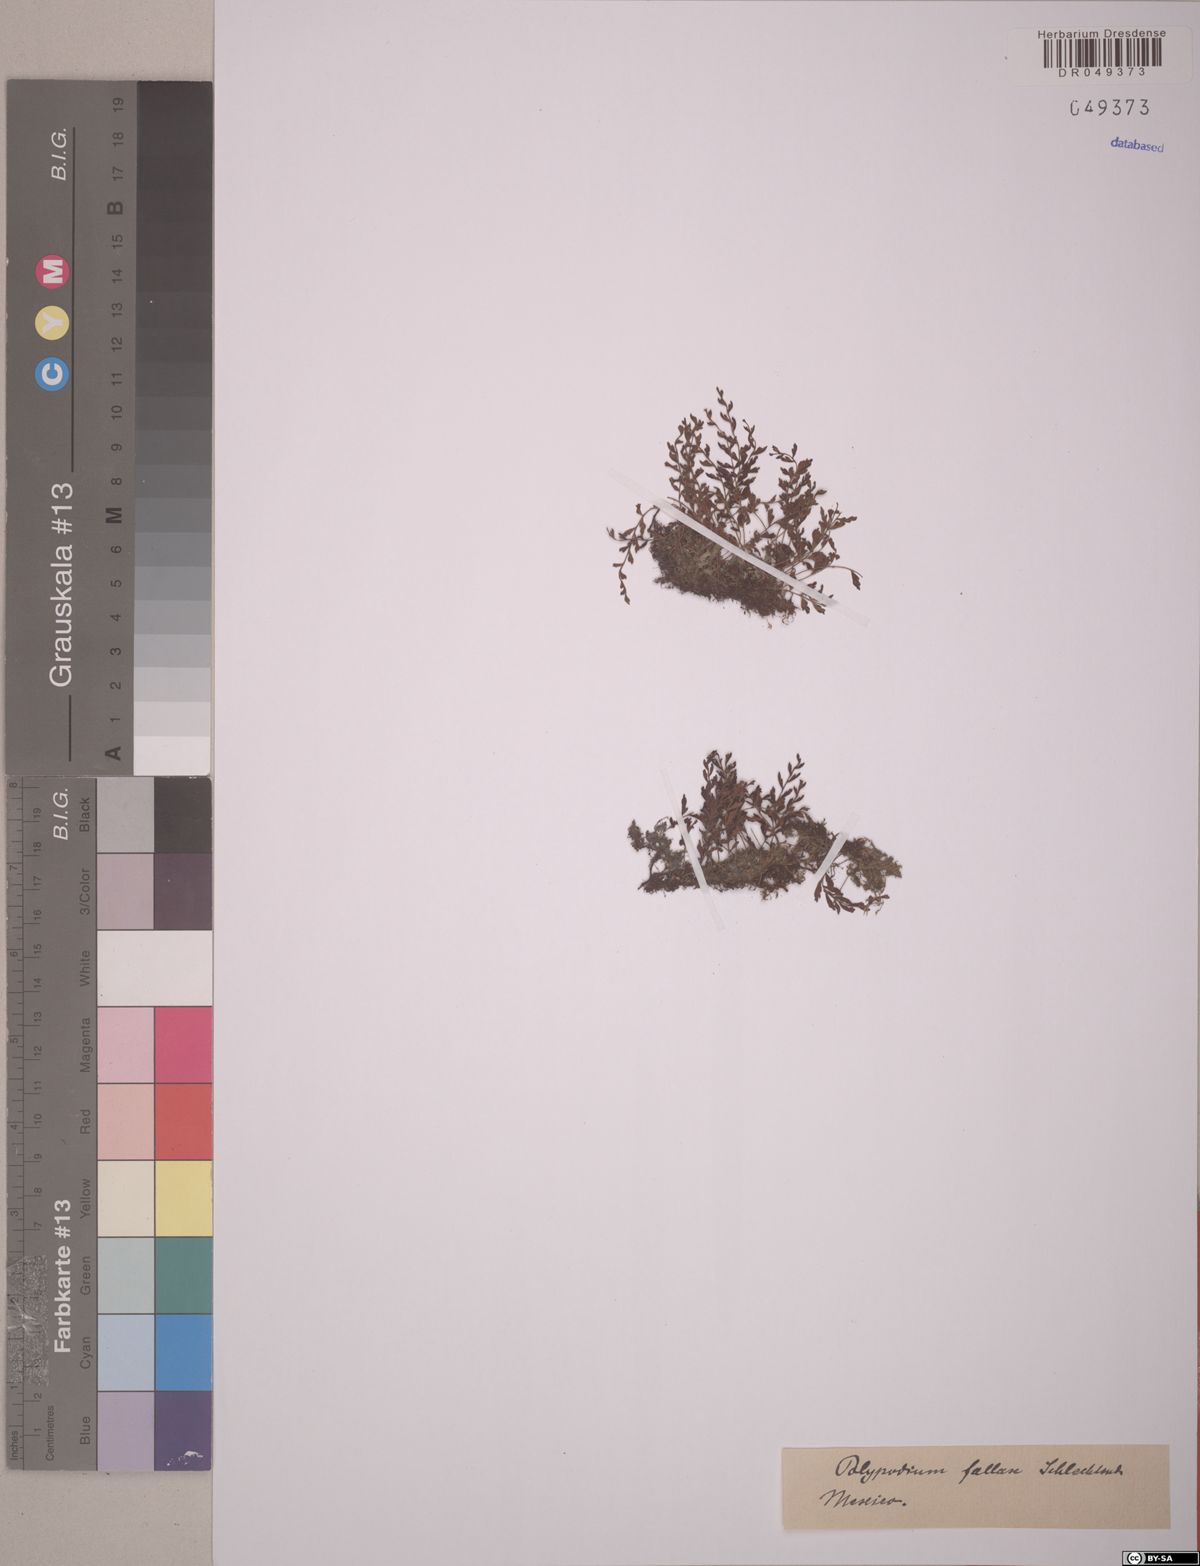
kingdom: Plantae
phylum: Tracheophyta
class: Polypodiopsida
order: Polypodiales
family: Polypodiaceae
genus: Pleopeltis
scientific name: Pleopeltis fallax
